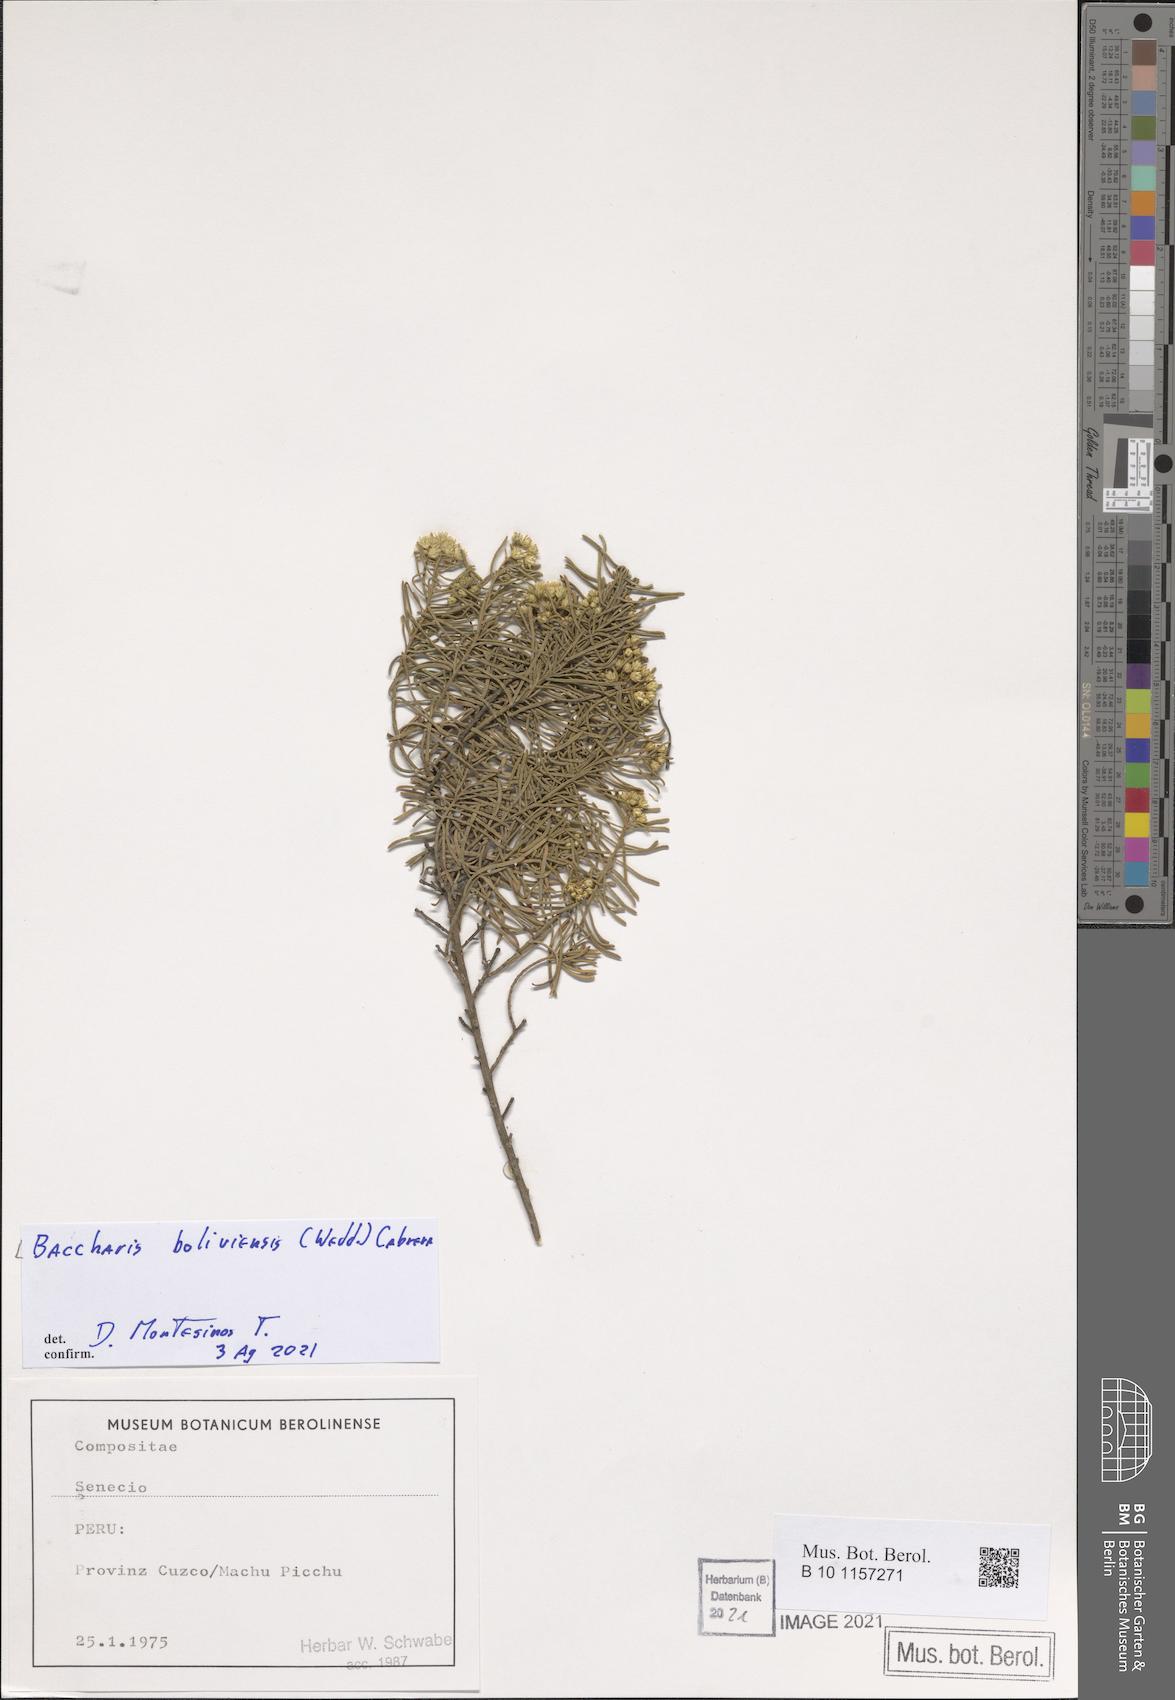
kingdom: Plantae
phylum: Tracheophyta
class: Magnoliopsida
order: Asterales
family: Asteraceae
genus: Baccharis
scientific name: Baccharis bolivensis
